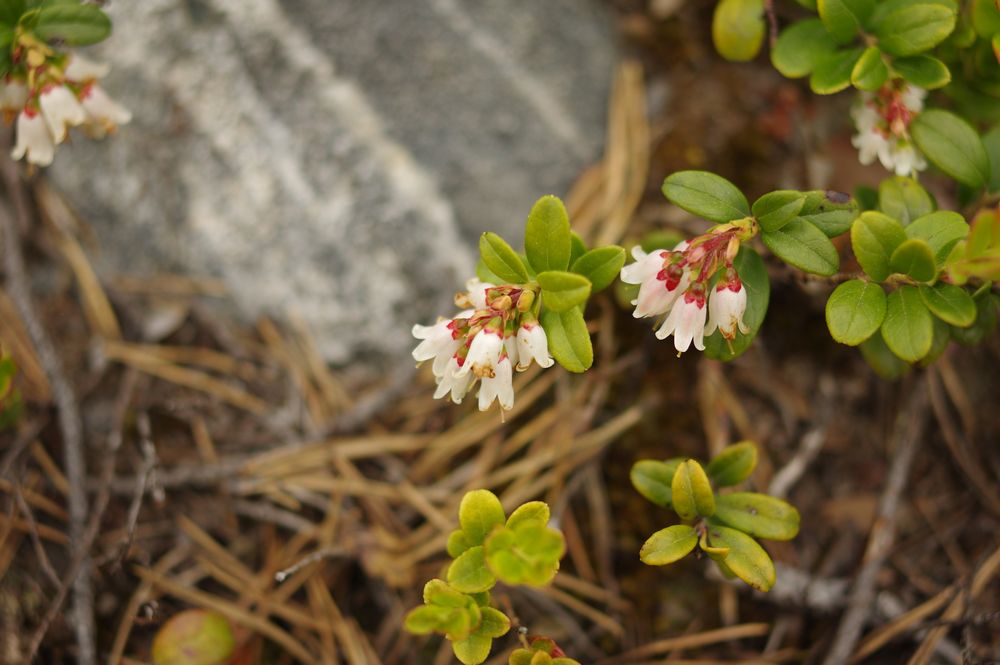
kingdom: Plantae
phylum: Tracheophyta
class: Magnoliopsida
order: Ericales
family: Ericaceae
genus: Vaccinium
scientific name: Vaccinium vitis-idaea
